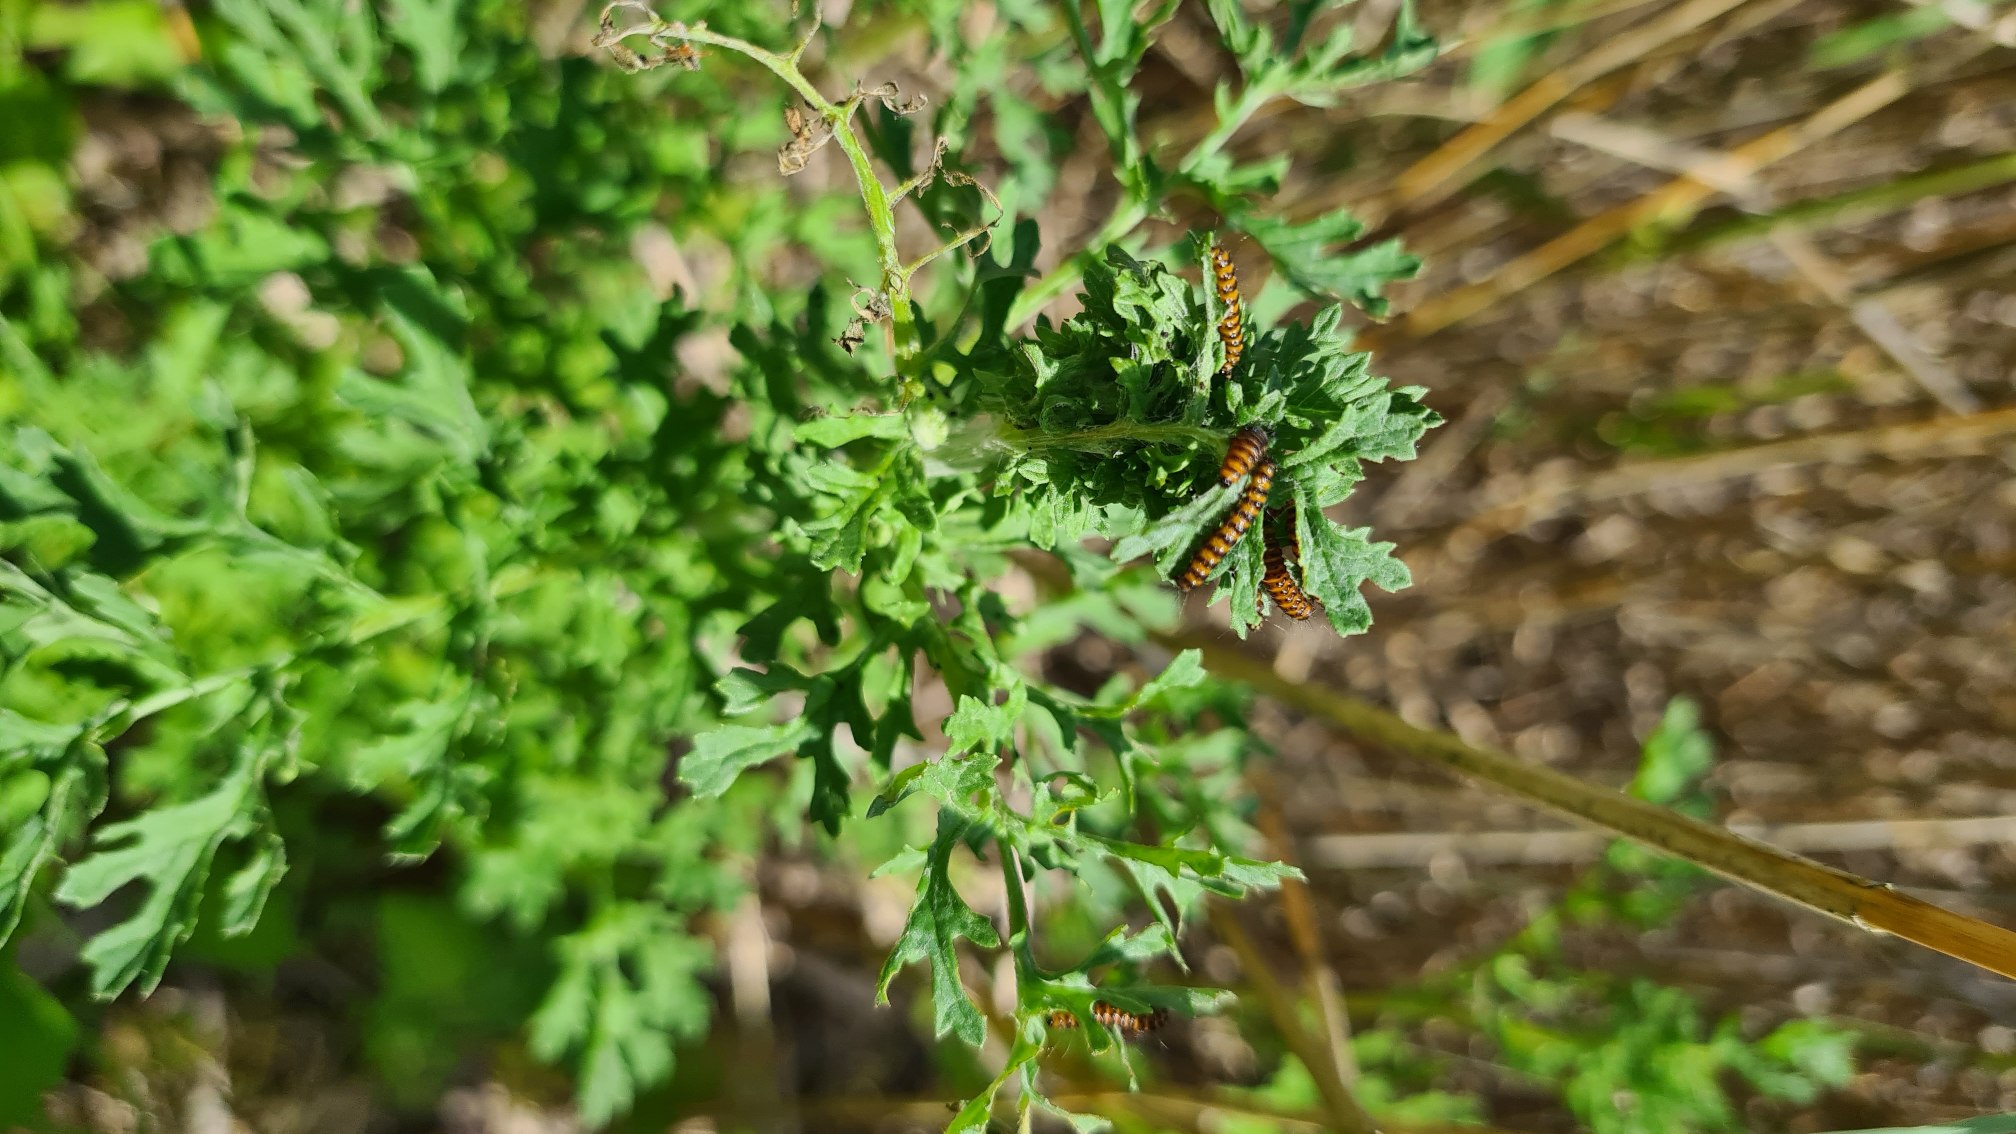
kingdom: Animalia
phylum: Arthropoda
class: Insecta
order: Lepidoptera
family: Erebidae
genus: Tyria
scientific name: Tyria jacobaeae
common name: Blodplet
